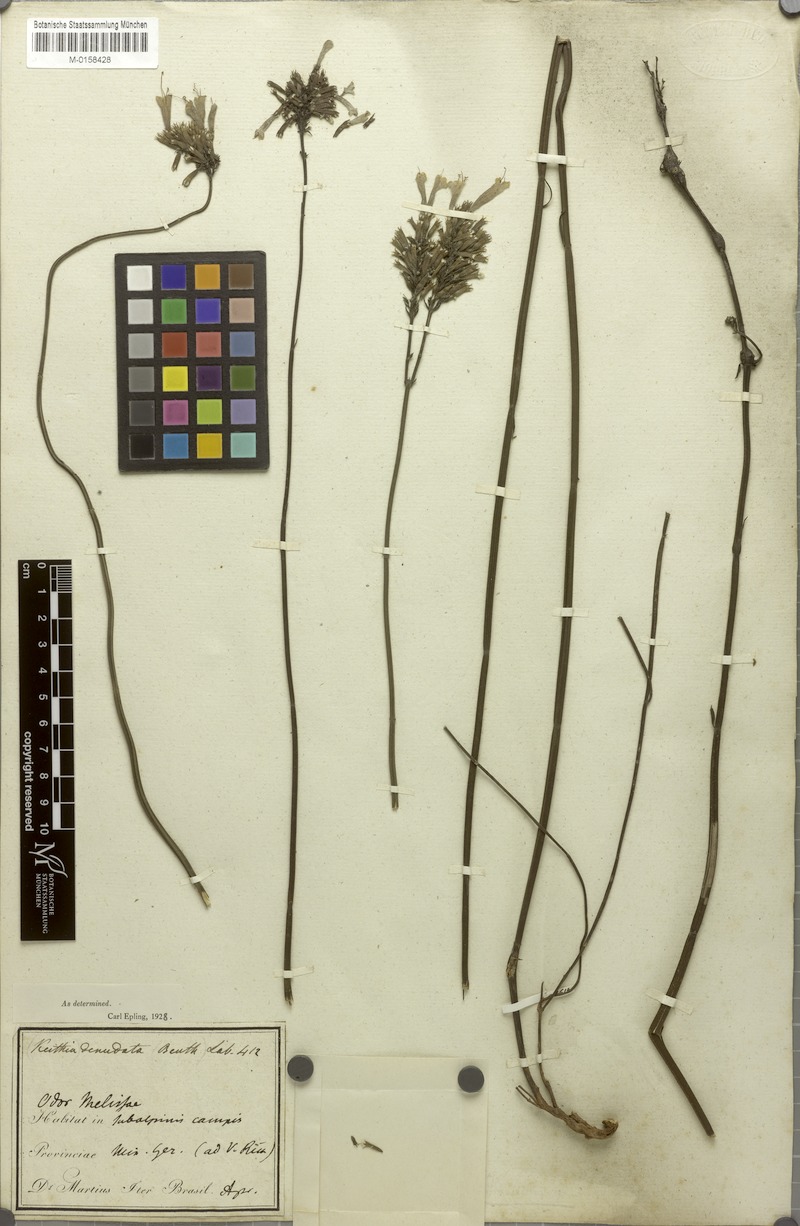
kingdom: Plantae
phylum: Tracheophyta
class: Magnoliopsida
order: Lamiales
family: Lamiaceae
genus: Rhabdocaulon
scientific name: Rhabdocaulon denudatum
